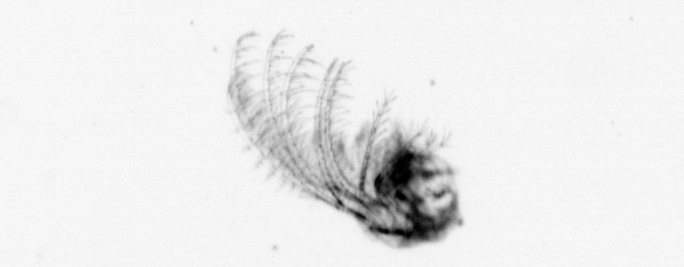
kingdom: Animalia
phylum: Arthropoda
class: Maxillopoda
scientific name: Maxillopoda
